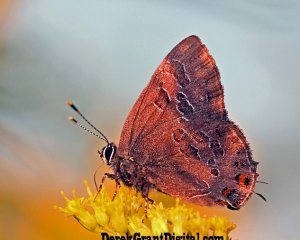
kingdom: Animalia
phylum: Arthropoda
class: Insecta
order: Lepidoptera
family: Lycaenidae
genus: Satyrium
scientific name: Satyrium liparops
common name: Striped Hairstreak
